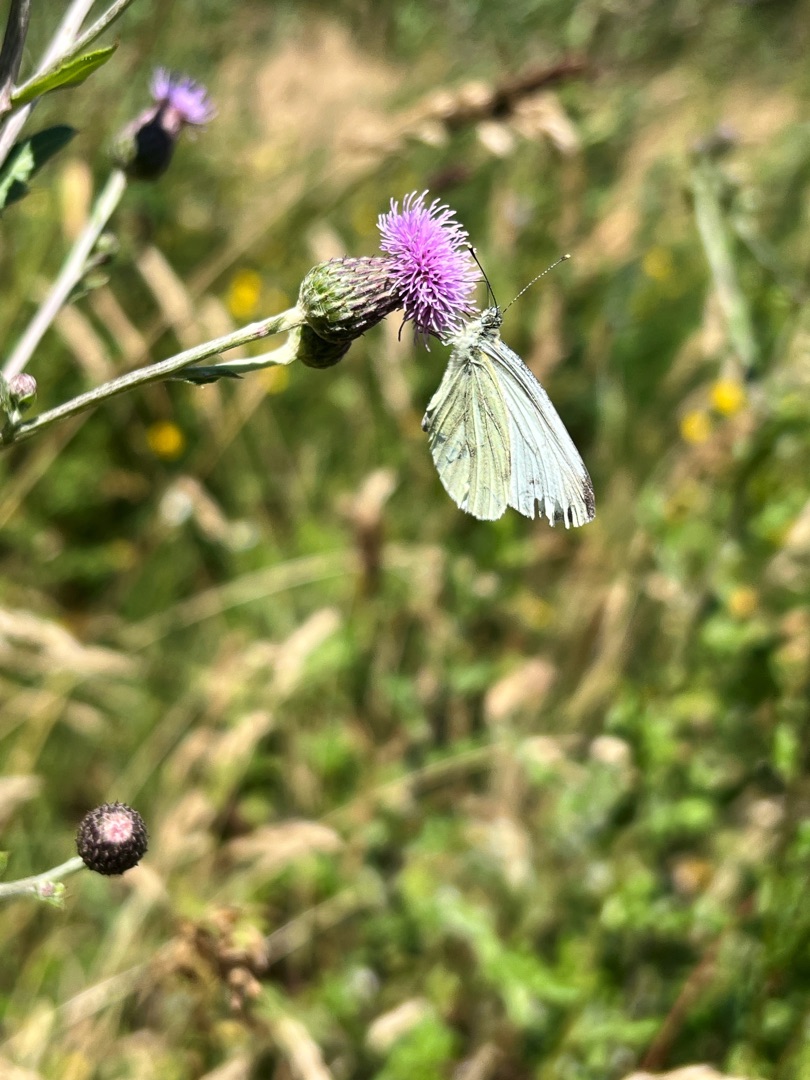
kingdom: Animalia
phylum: Arthropoda
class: Insecta
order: Lepidoptera
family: Pieridae
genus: Pieris
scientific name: Pieris napi
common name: Grønåret kålsommerfugl
